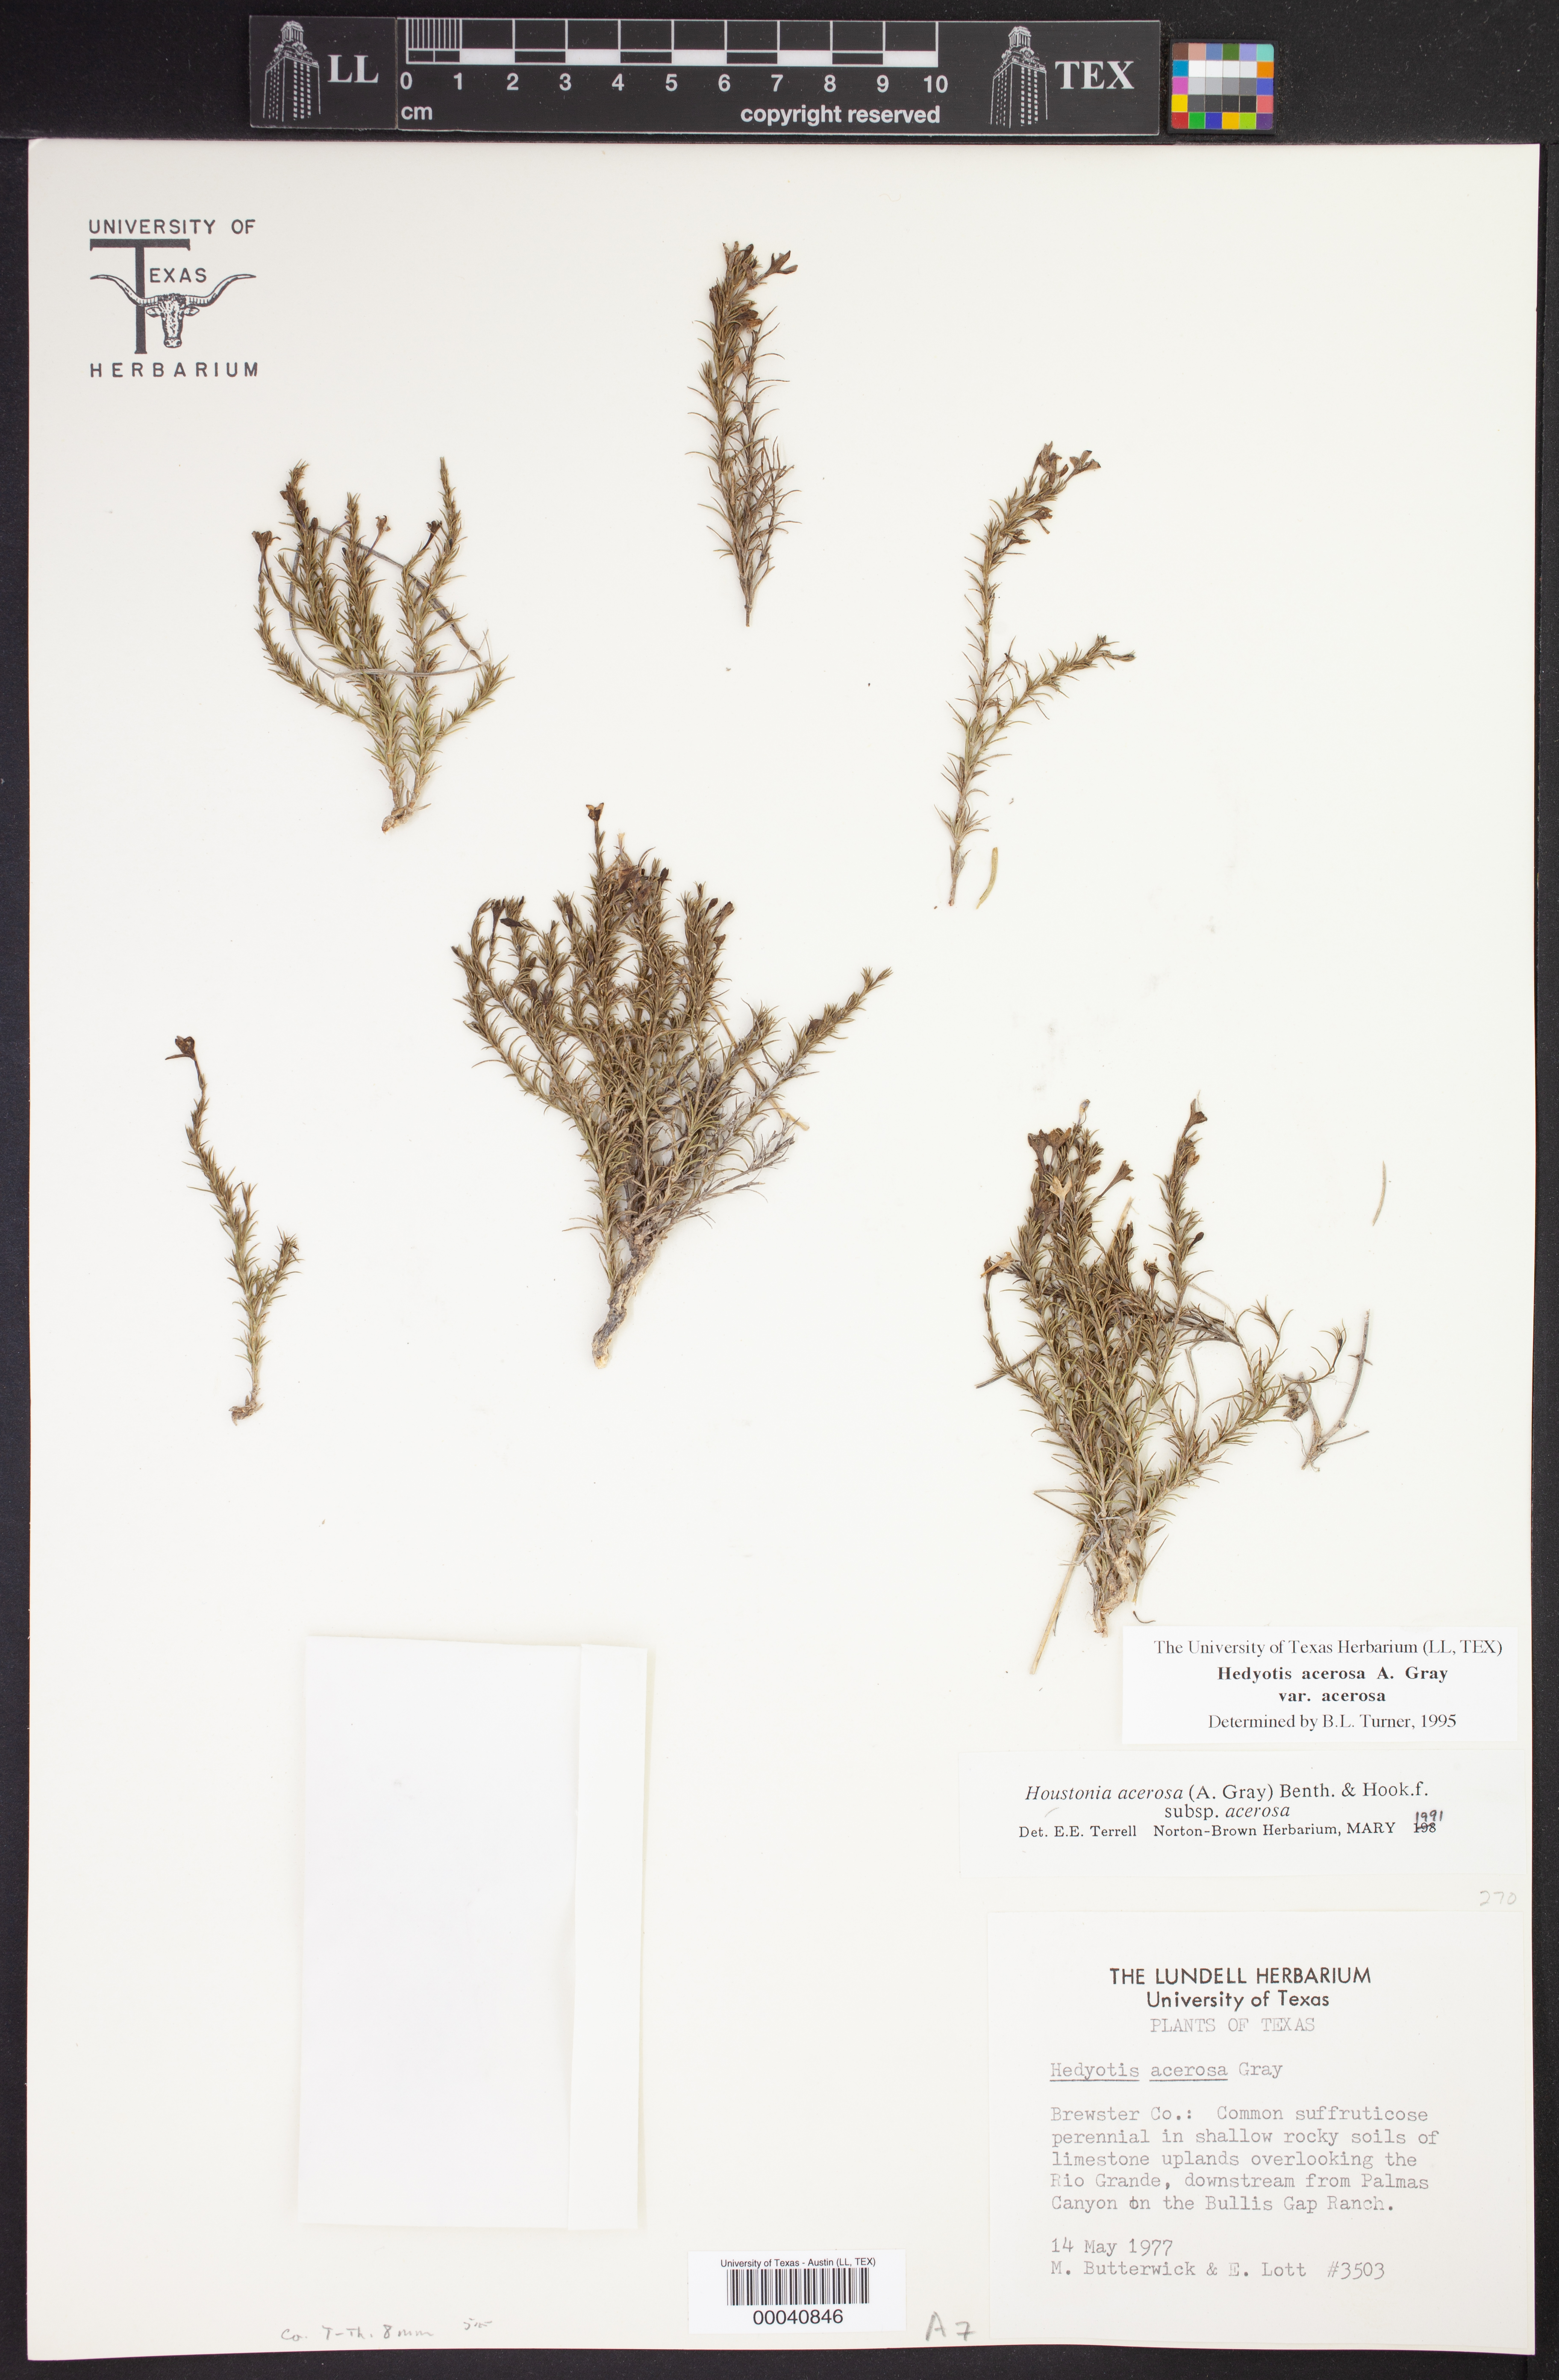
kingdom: Plantae
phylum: Tracheophyta
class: Magnoliopsida
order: Gentianales
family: Rubiaceae
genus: Houstonia
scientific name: Houstonia acerosa
